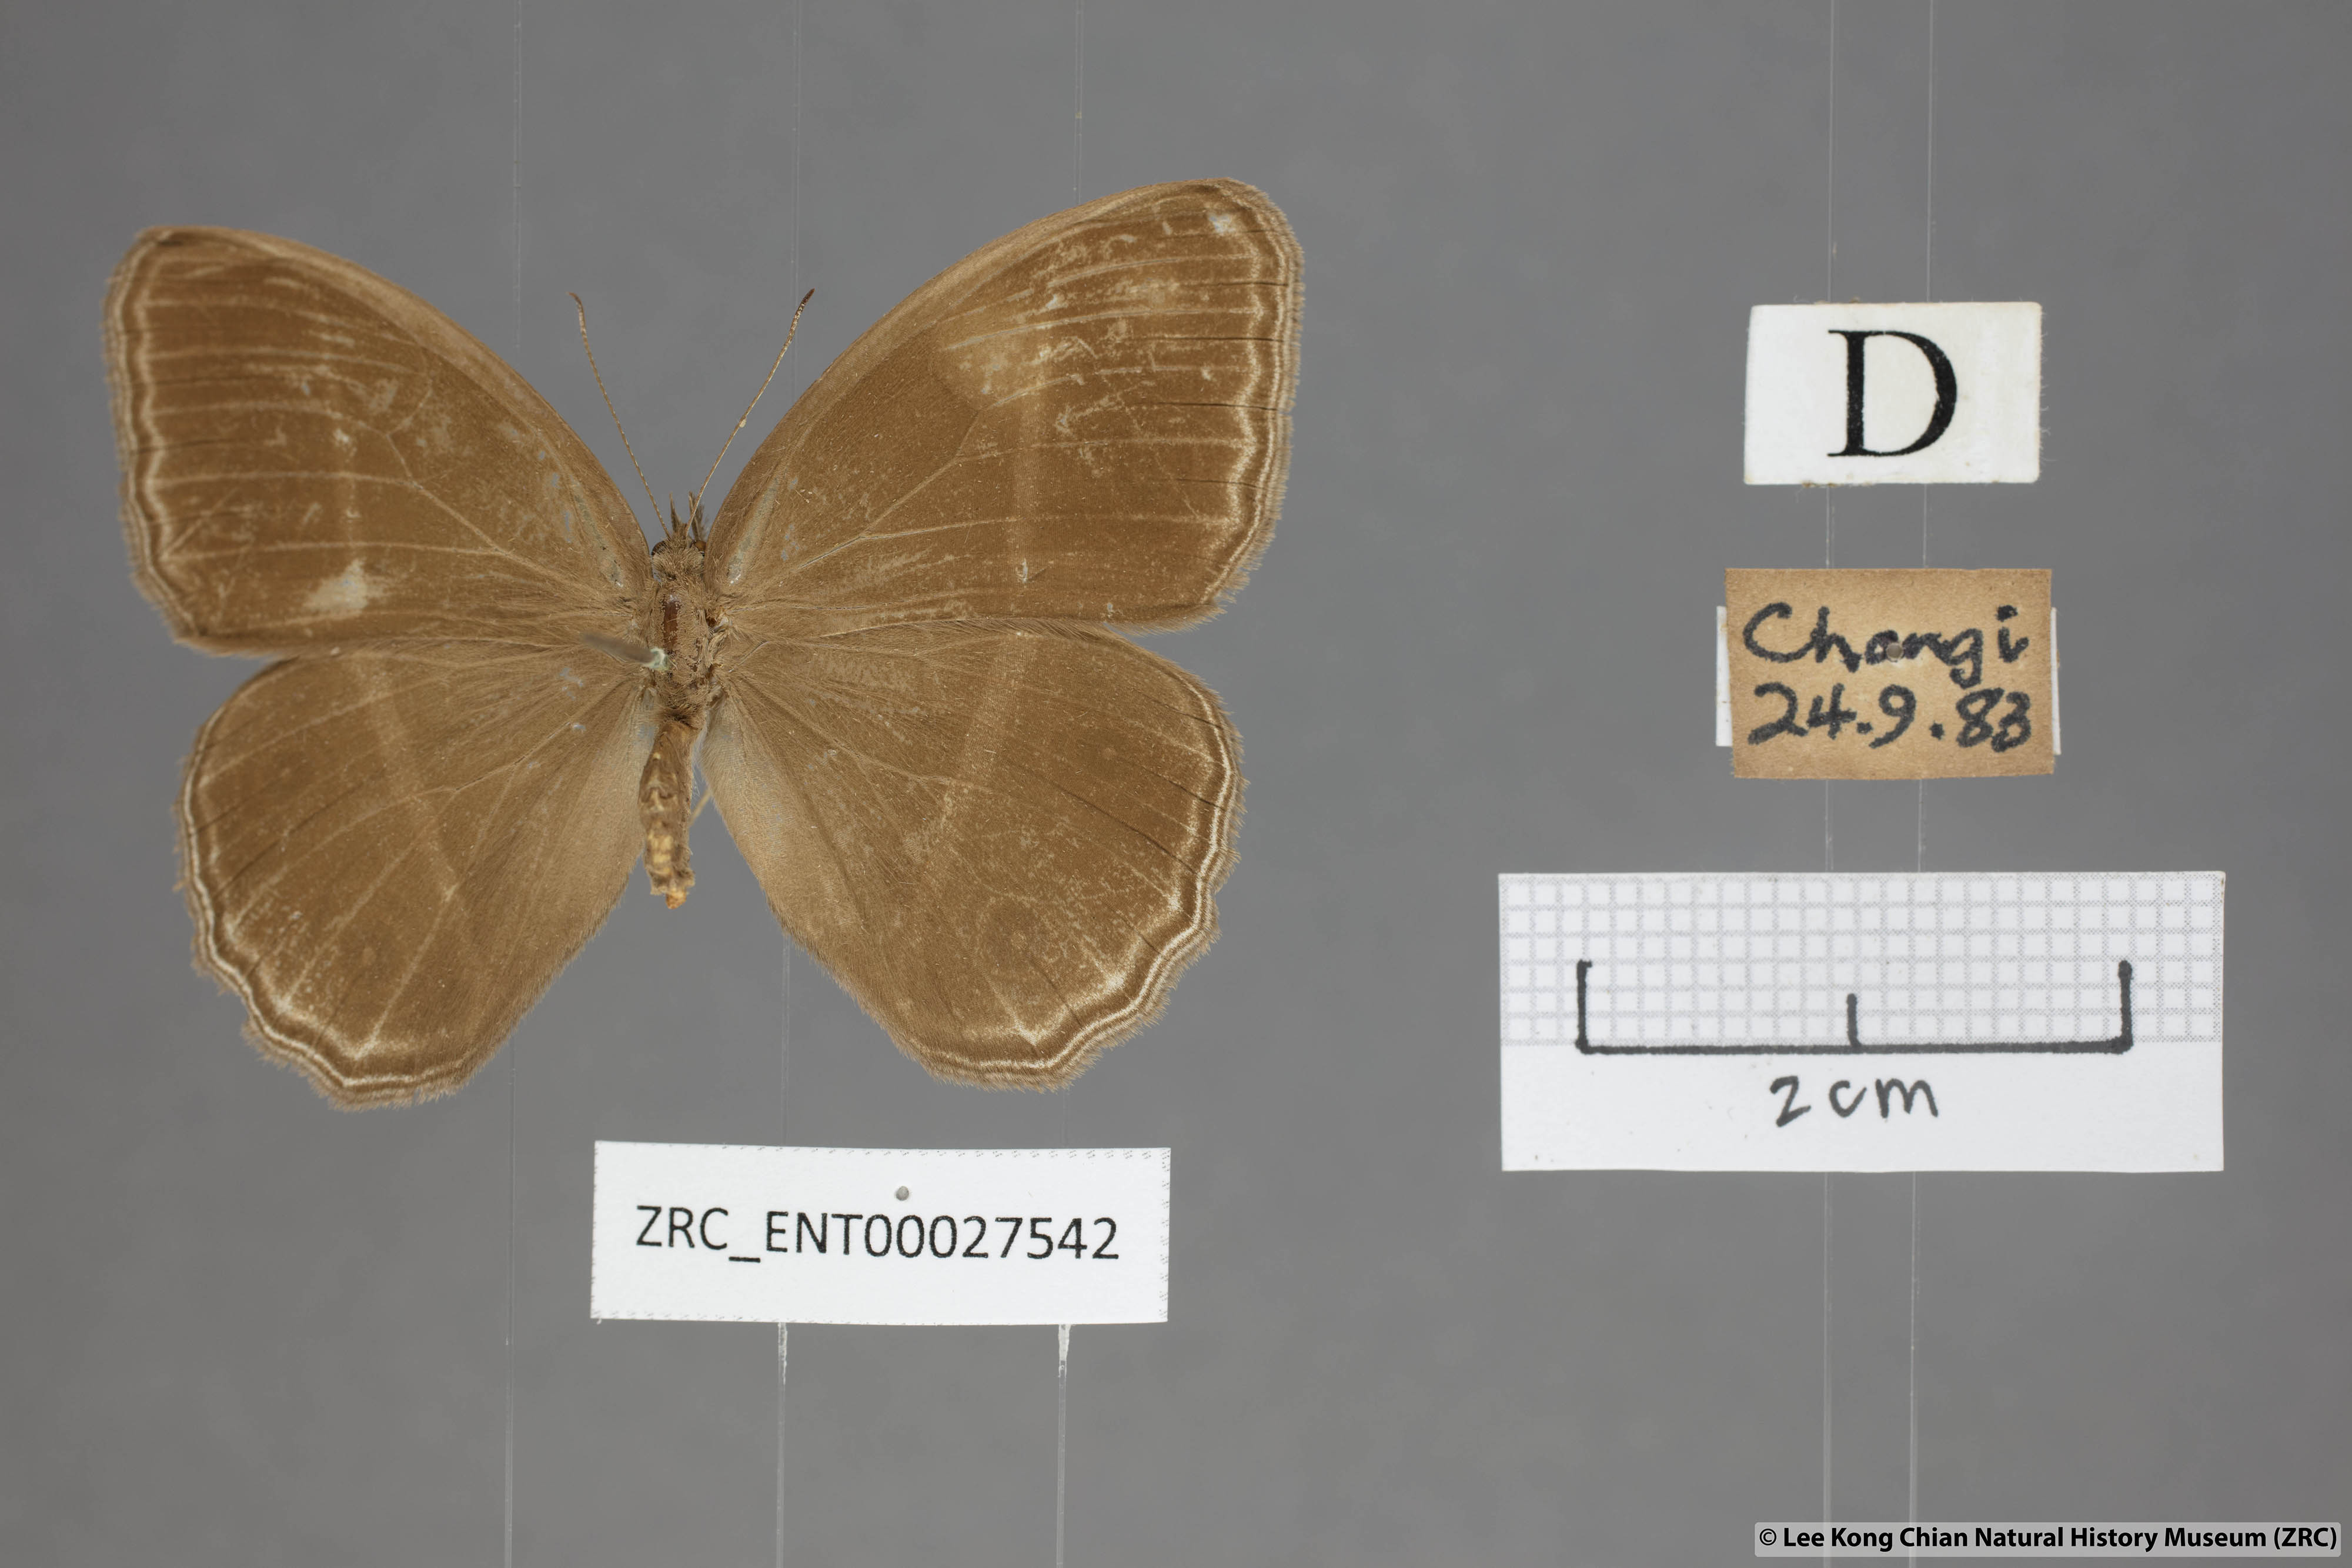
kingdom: Animalia
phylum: Arthropoda
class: Insecta
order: Lepidoptera
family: Nymphalidae
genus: Orsotriaena
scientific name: Orsotriaena medus
